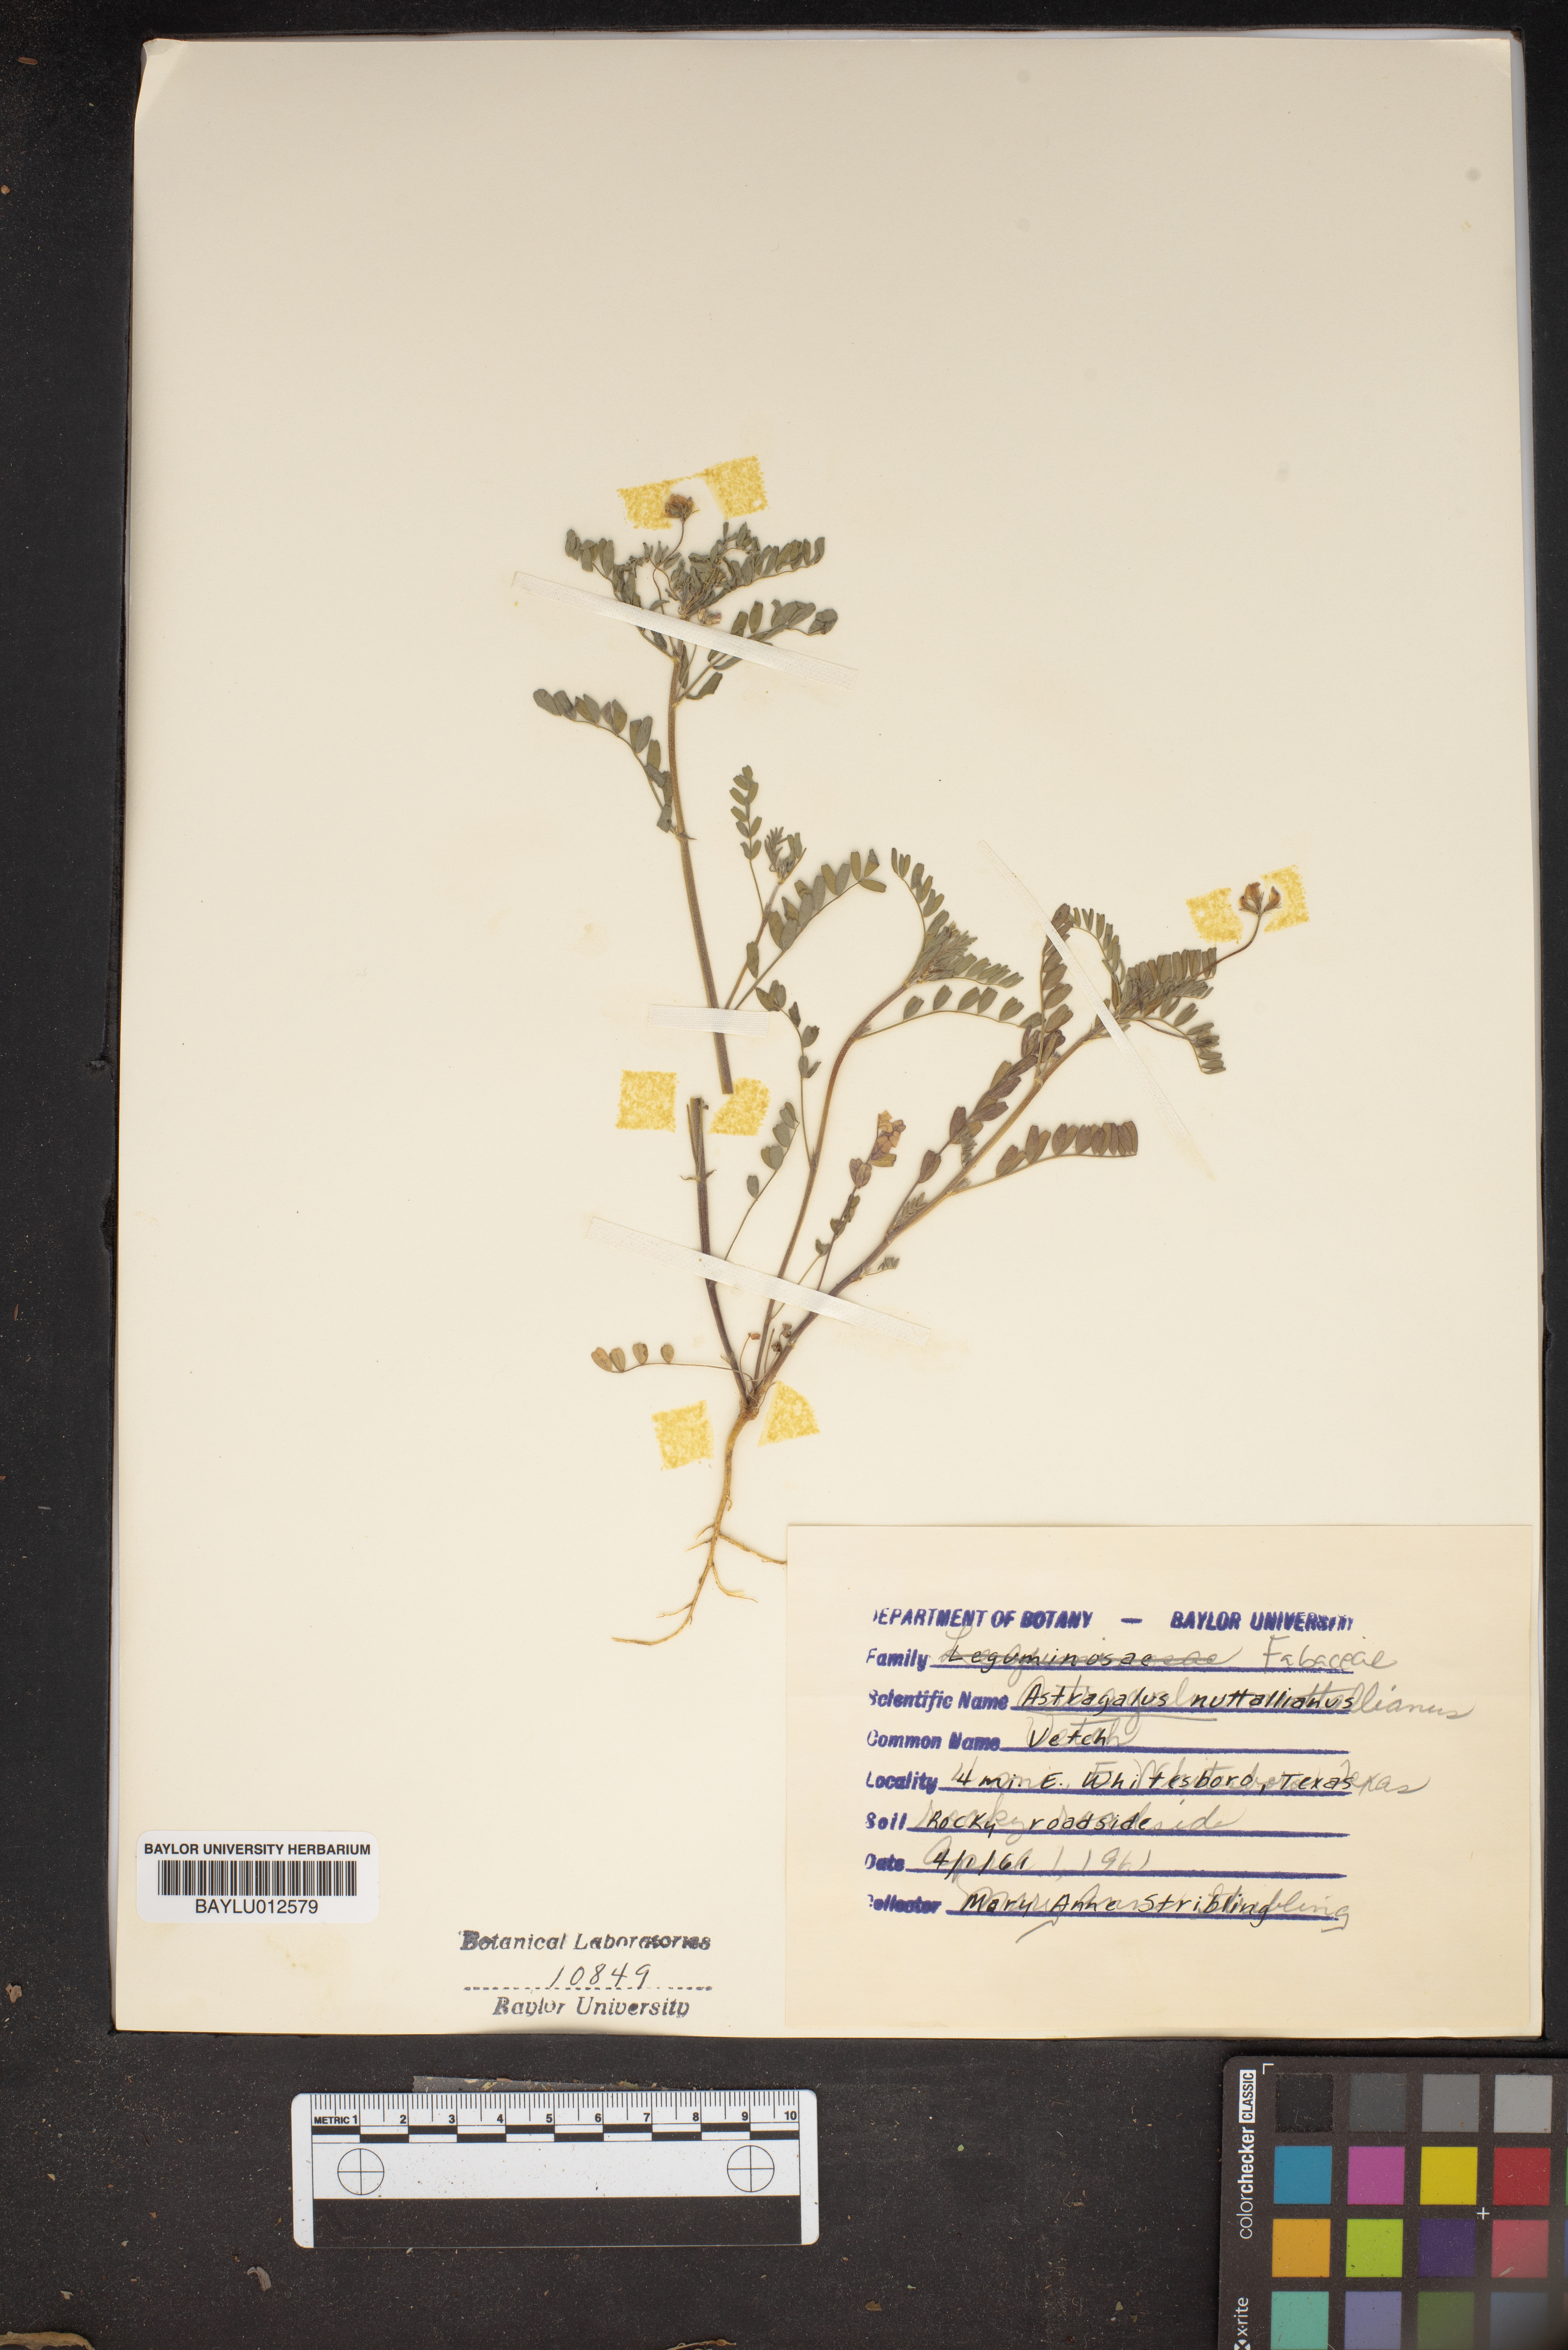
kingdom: Plantae
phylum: Tracheophyta
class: Magnoliopsida
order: Fabales
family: Fabaceae
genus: Astragalus
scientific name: Astragalus nuttallianus
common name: Smallflowered milkvetch
